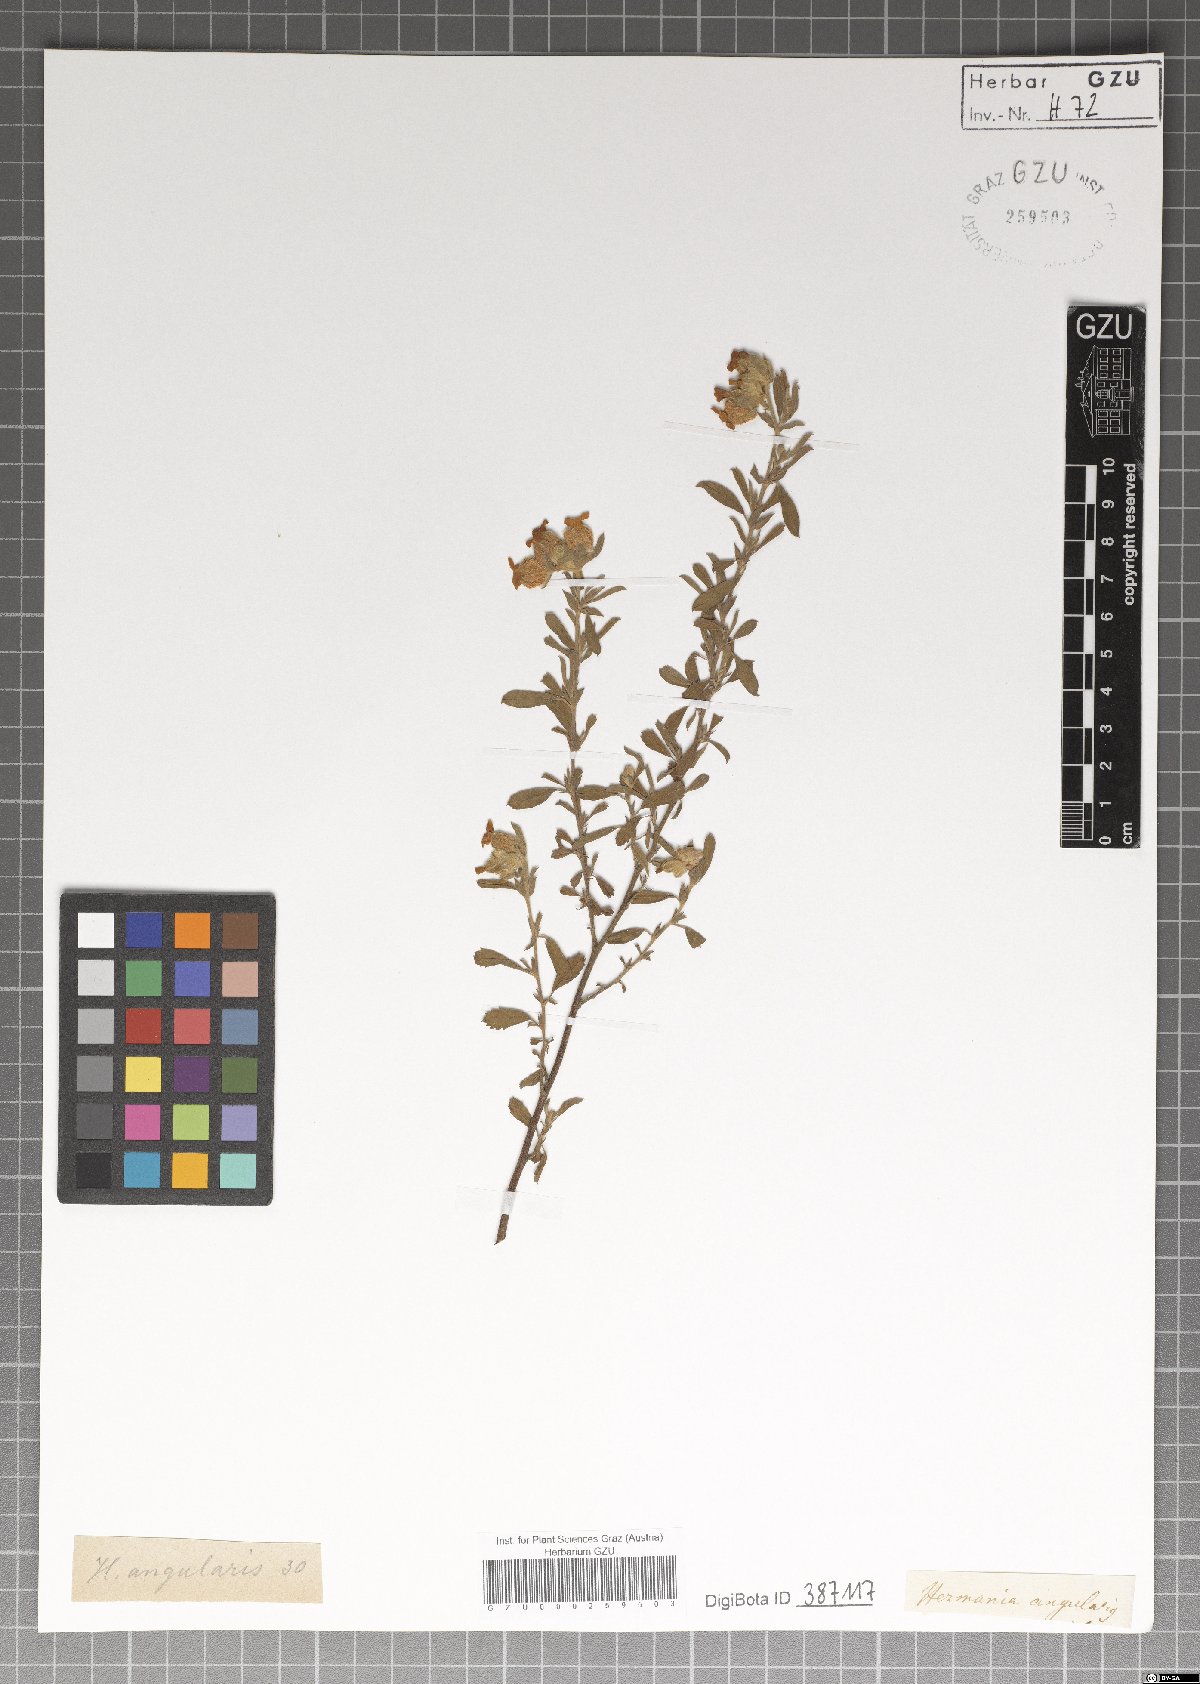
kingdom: Plantae
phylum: Tracheophyta
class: Magnoliopsida
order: Malvales
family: Malvaceae
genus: Hermannia
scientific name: Hermannia angularis
